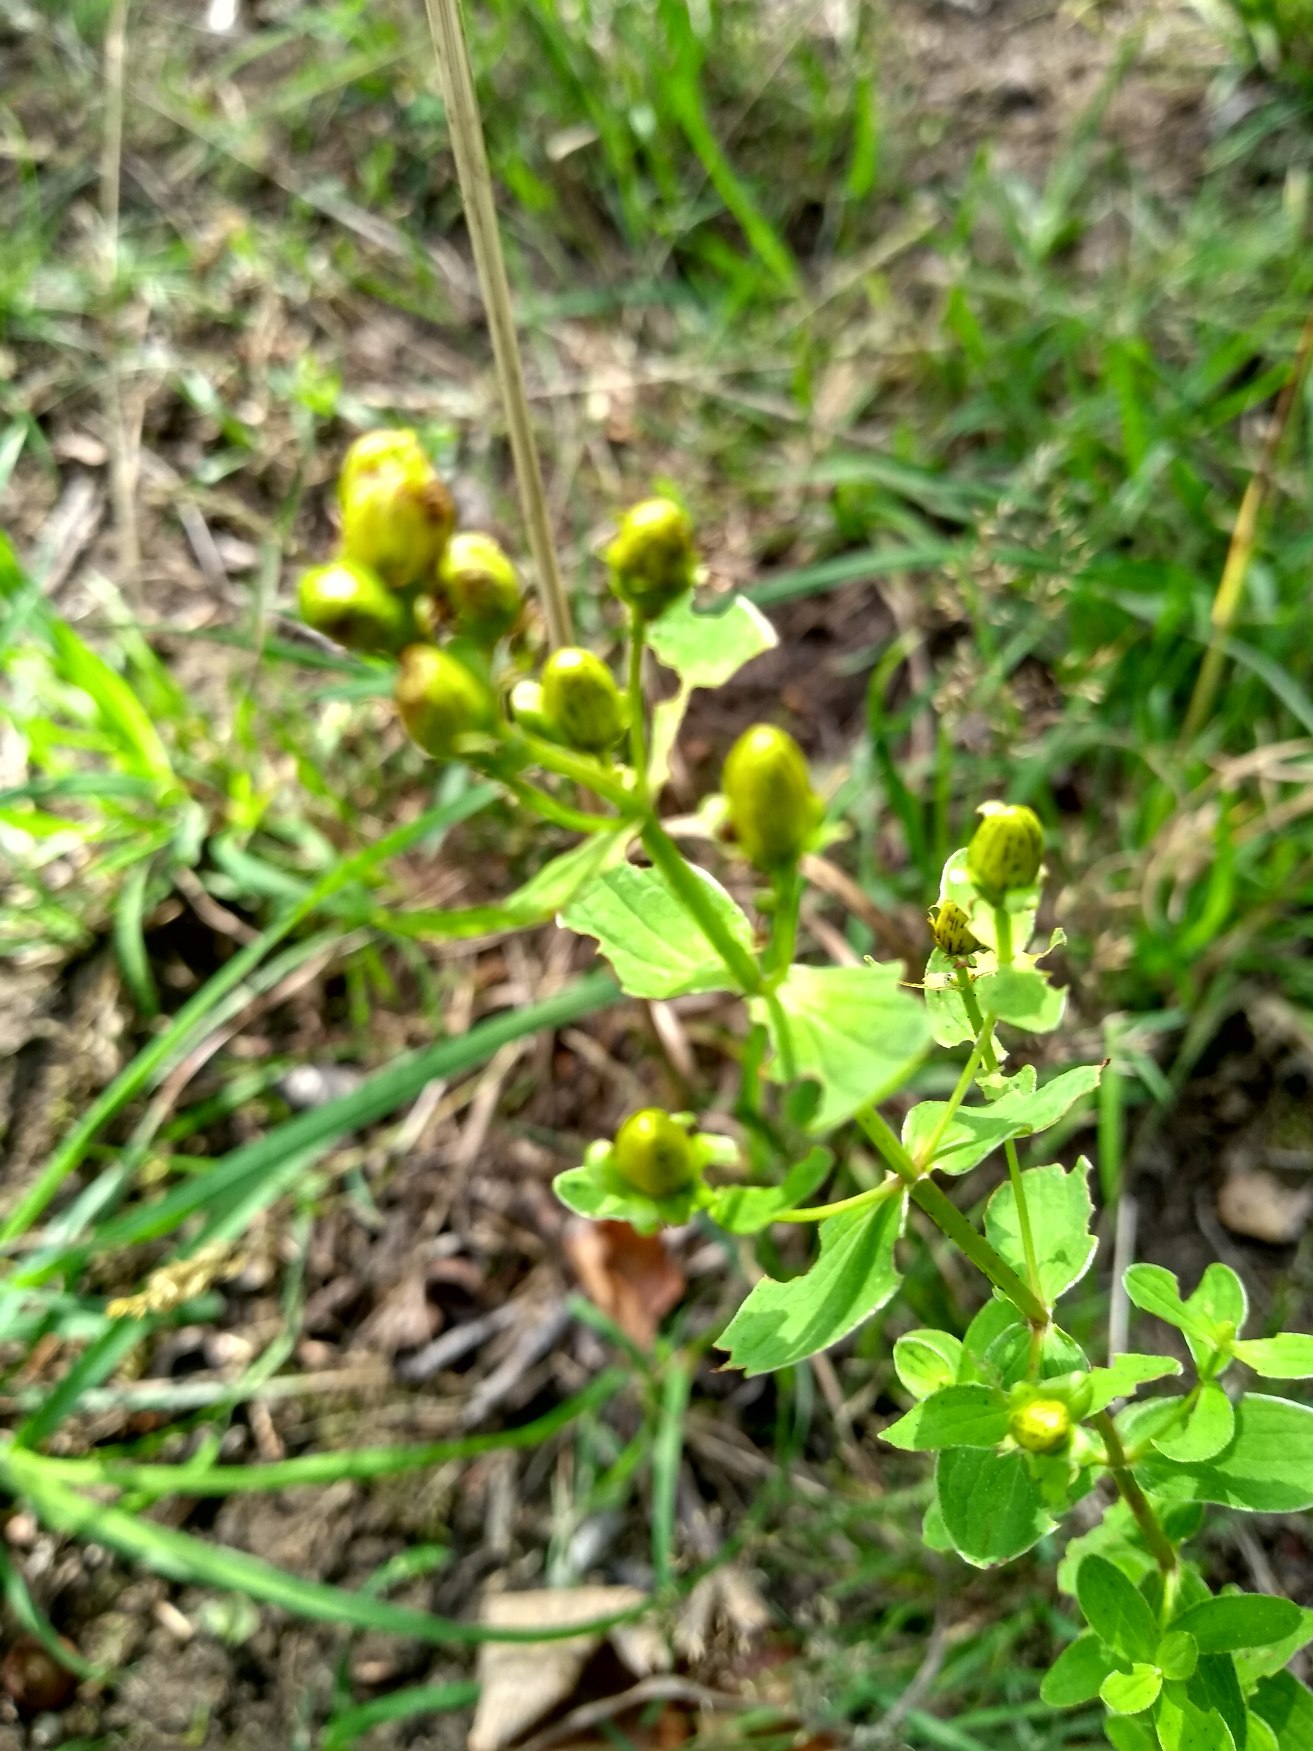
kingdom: Plantae
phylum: Tracheophyta
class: Magnoliopsida
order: Malpighiales
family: Hypericaceae
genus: Hypericum
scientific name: Hypericum maculatum
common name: Kantet perikon
